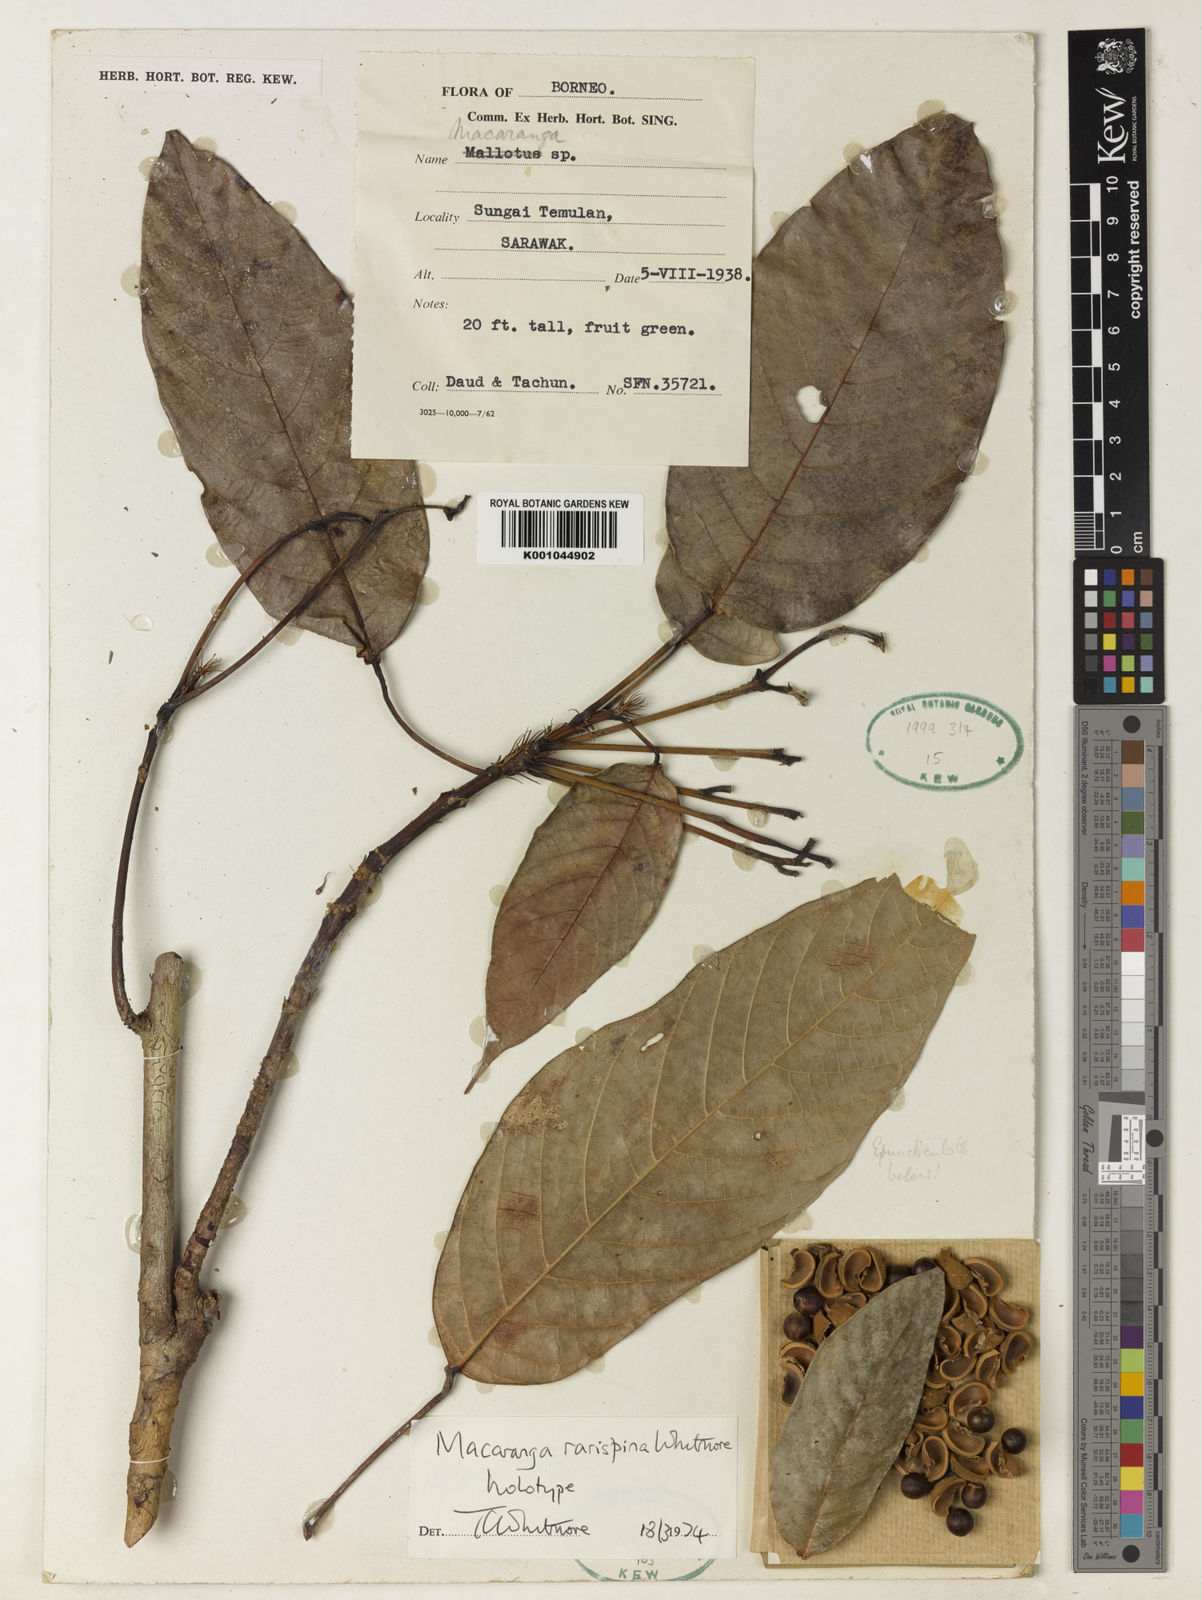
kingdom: Plantae
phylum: Tracheophyta
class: Magnoliopsida
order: Malpighiales
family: Euphorbiaceae
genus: Macaranga
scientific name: Macaranga rarispina
